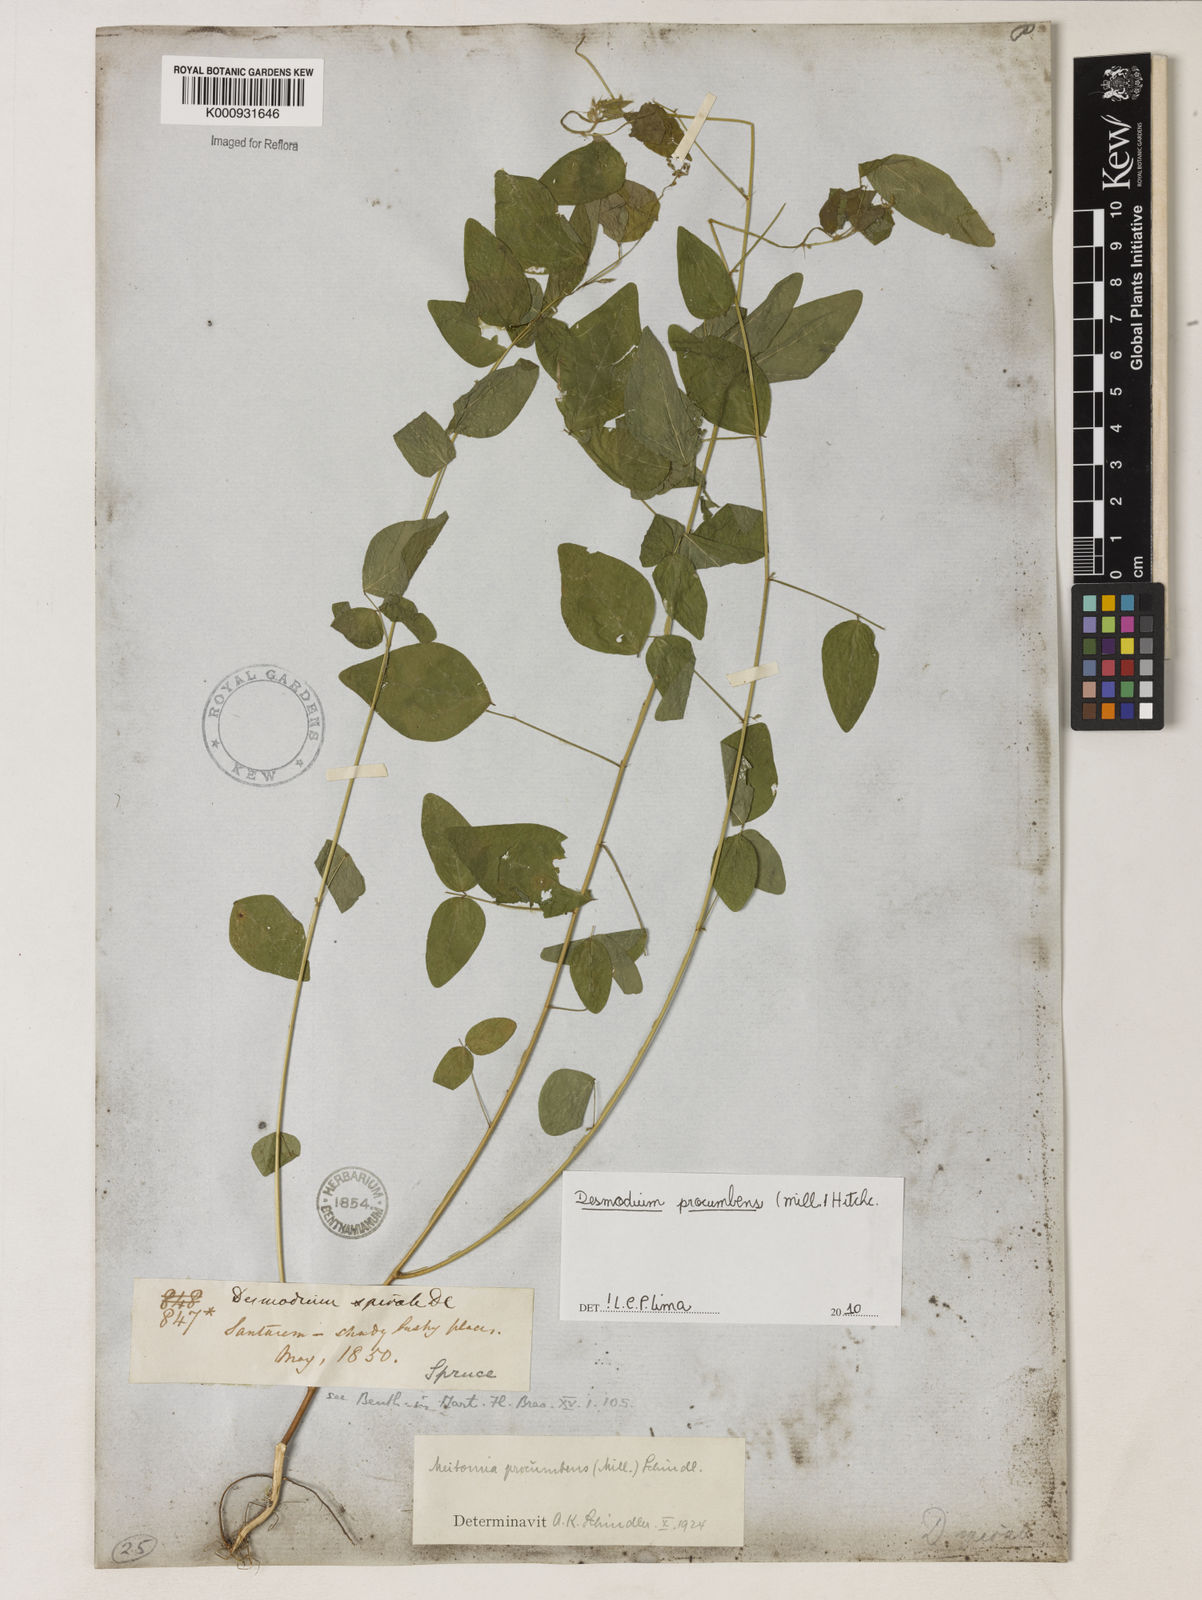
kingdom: Plantae
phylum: Tracheophyta
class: Magnoliopsida
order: Fabales
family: Fabaceae
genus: Desmodium
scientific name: Desmodium
